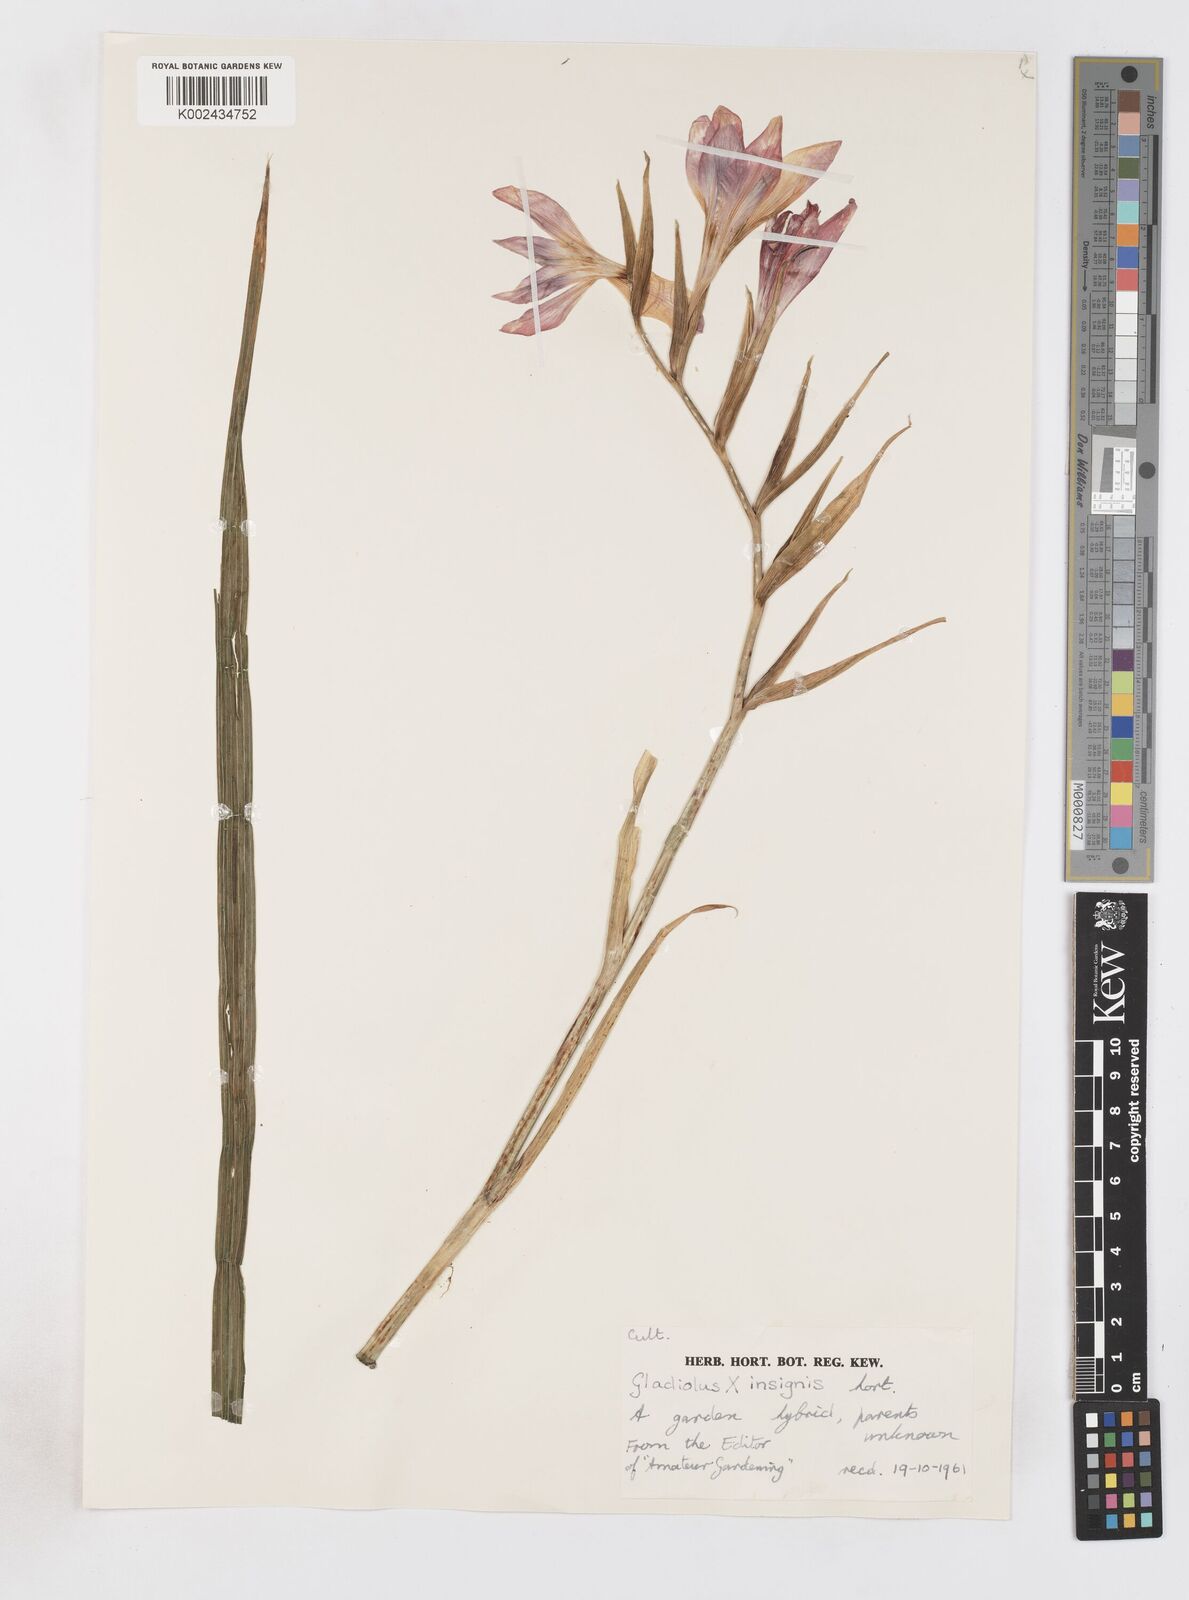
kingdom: Plantae
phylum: Tracheophyta
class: Liliopsida
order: Asparagales
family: Iridaceae
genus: Gladiolus
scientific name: Gladiolus colvillei
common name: Gladiolus
